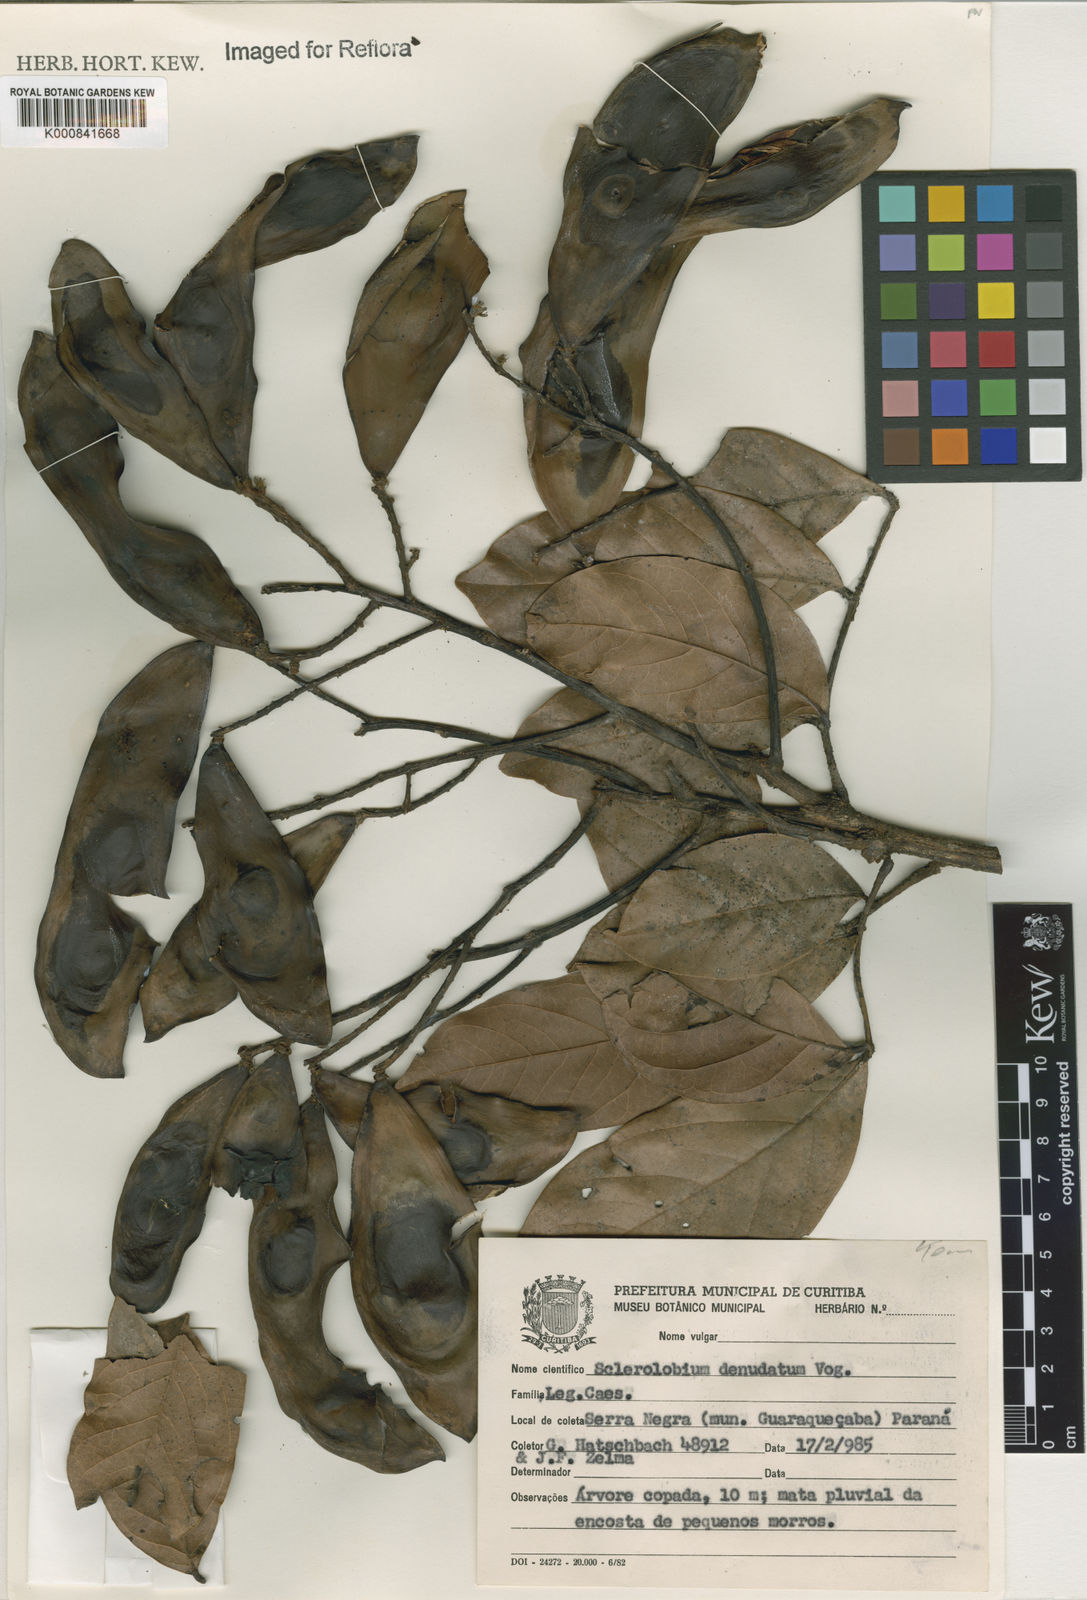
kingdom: Plantae
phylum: Tracheophyta
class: Magnoliopsida
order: Fabales
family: Fabaceae
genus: Tachigali
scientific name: Tachigali denudata
